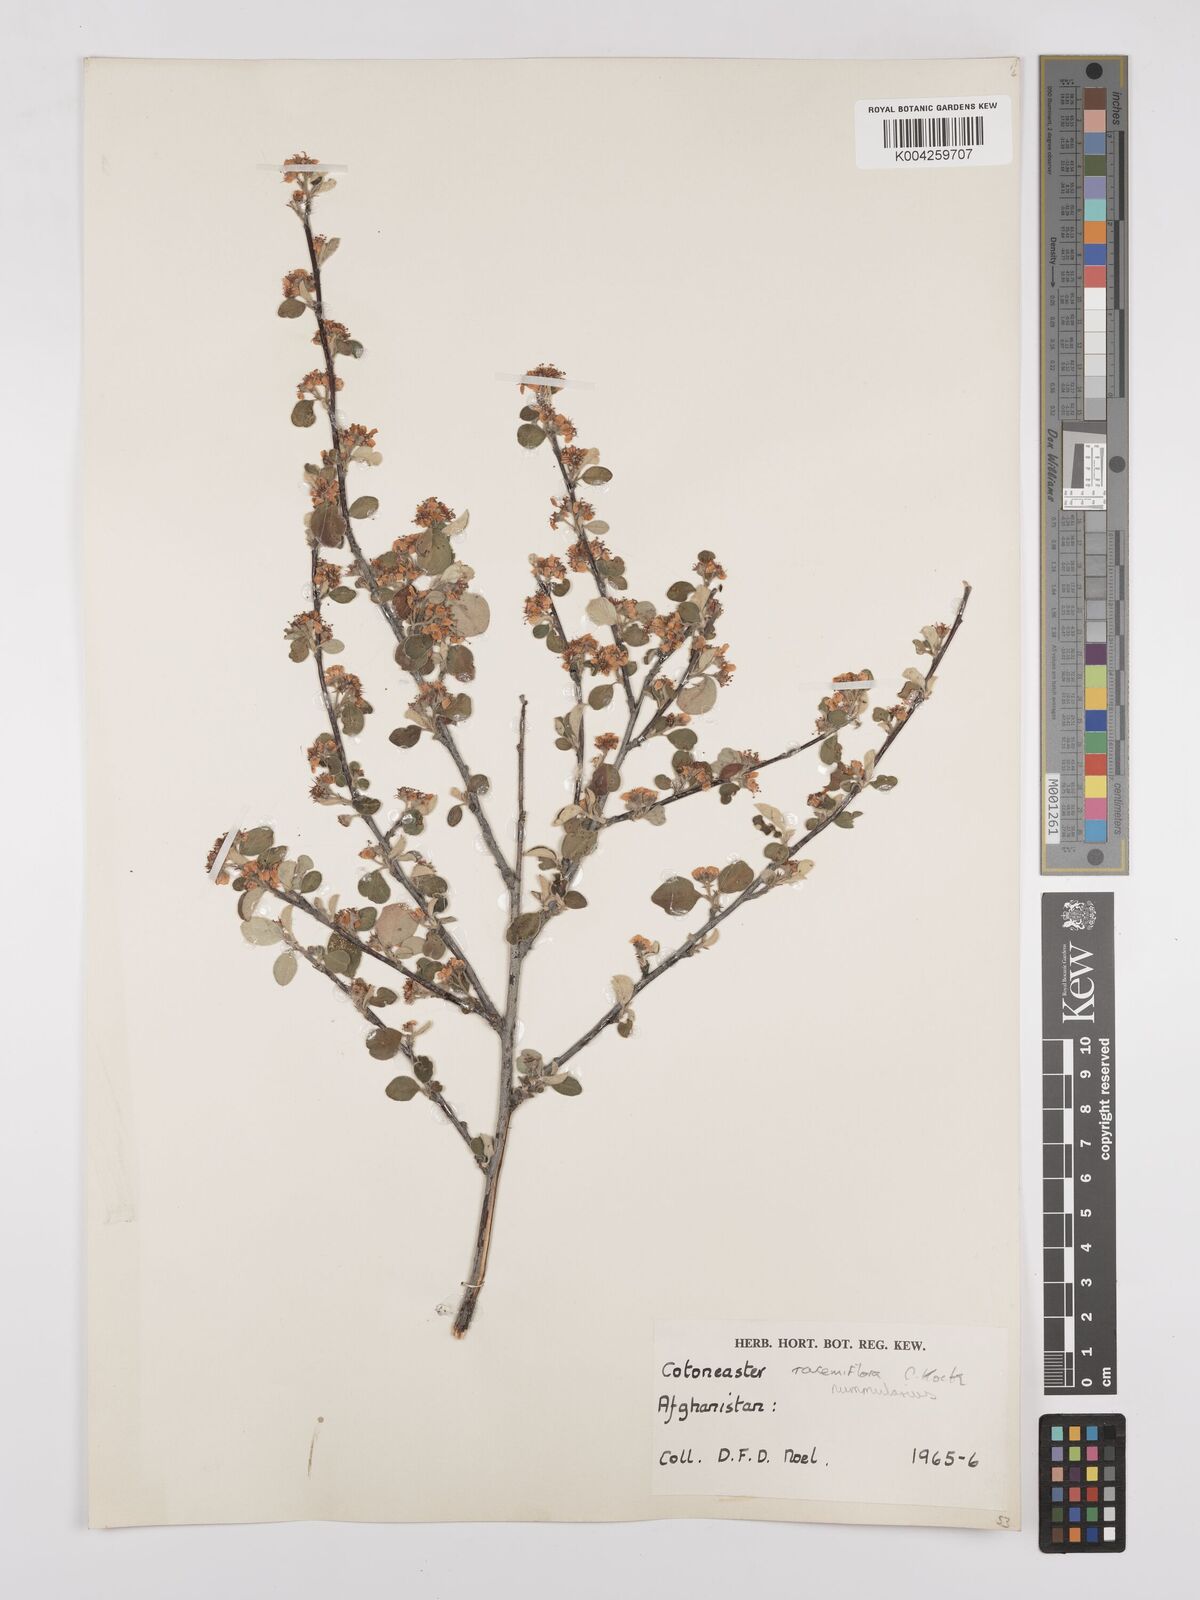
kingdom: Plantae
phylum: Tracheophyta
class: Magnoliopsida
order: Rosales
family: Rosaceae
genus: Cotoneaster
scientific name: Cotoneaster racemiflorus
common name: Cluster-flower cotoneaster
